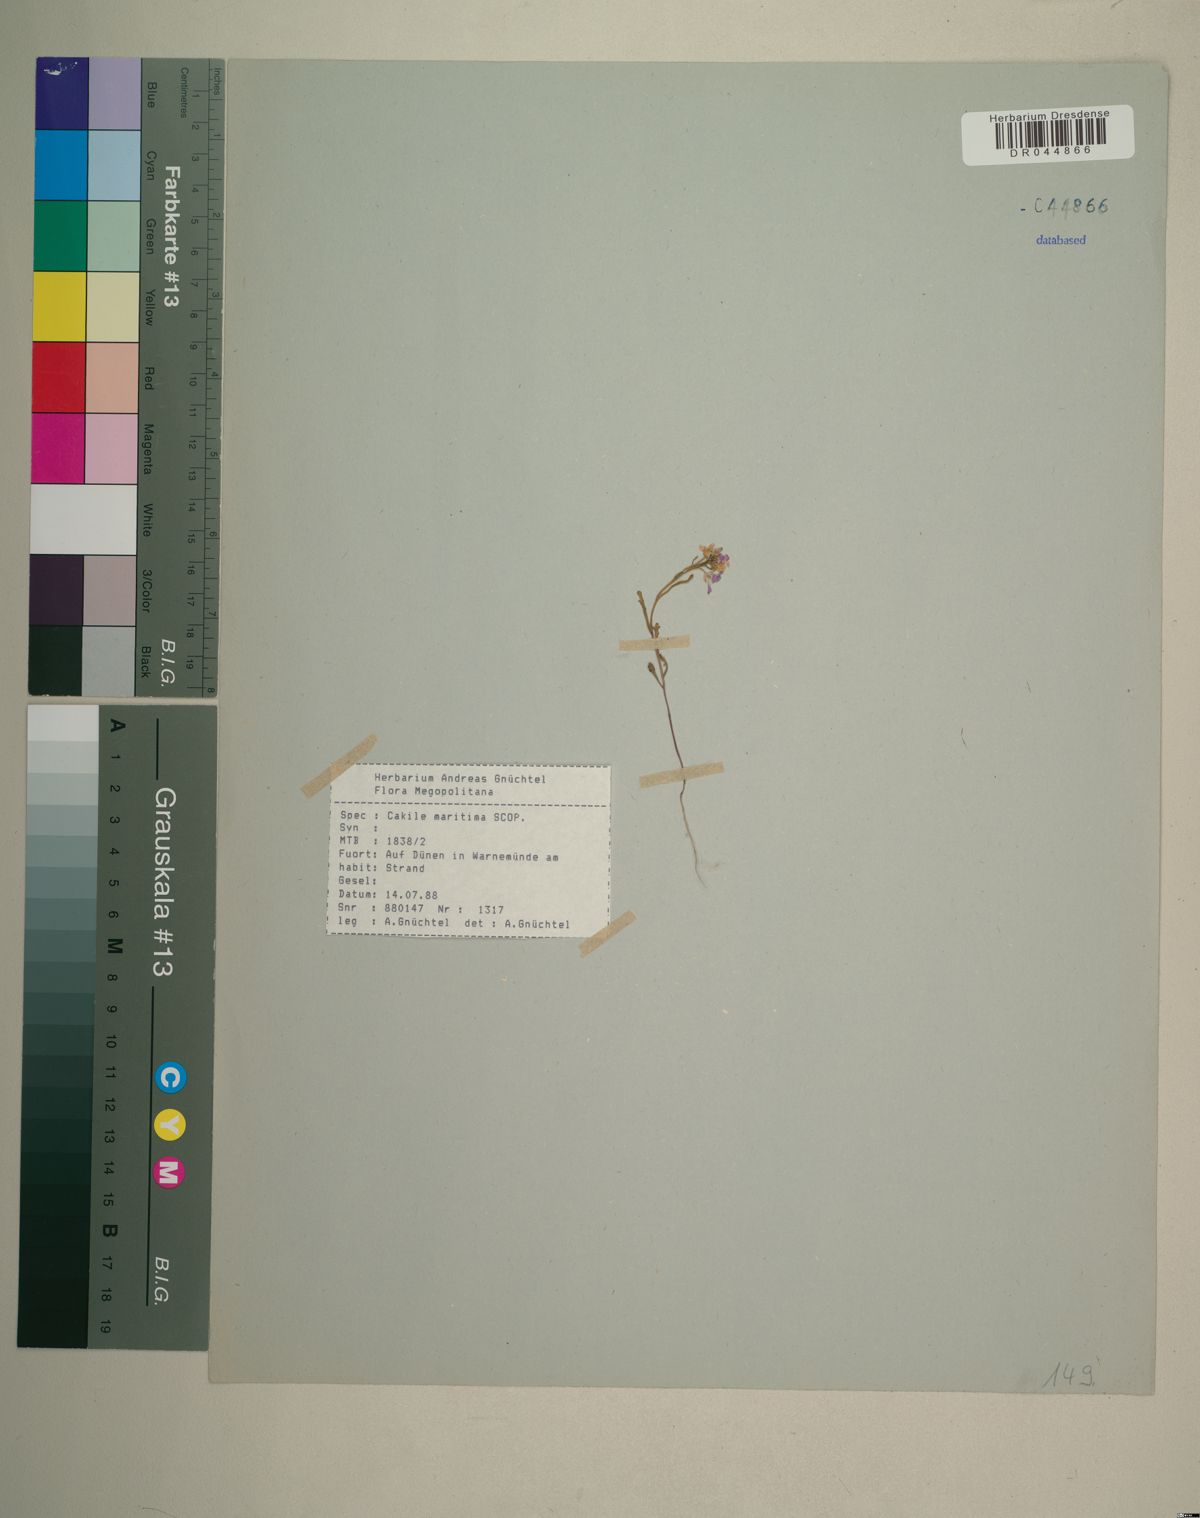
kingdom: Plantae
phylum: Tracheophyta
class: Magnoliopsida
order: Brassicales
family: Brassicaceae
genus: Cakile
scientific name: Cakile maritima
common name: Sea rocket
